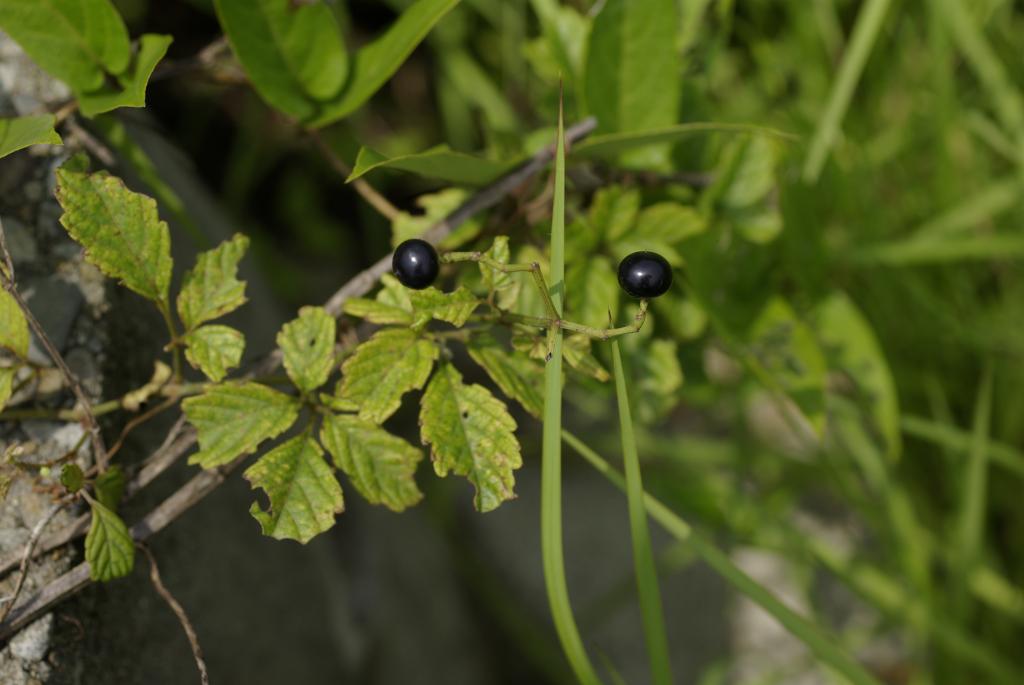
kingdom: Plantae
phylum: Tracheophyta
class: Magnoliopsida
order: Vitales
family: Vitaceae
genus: Causonis
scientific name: Causonis japonica
